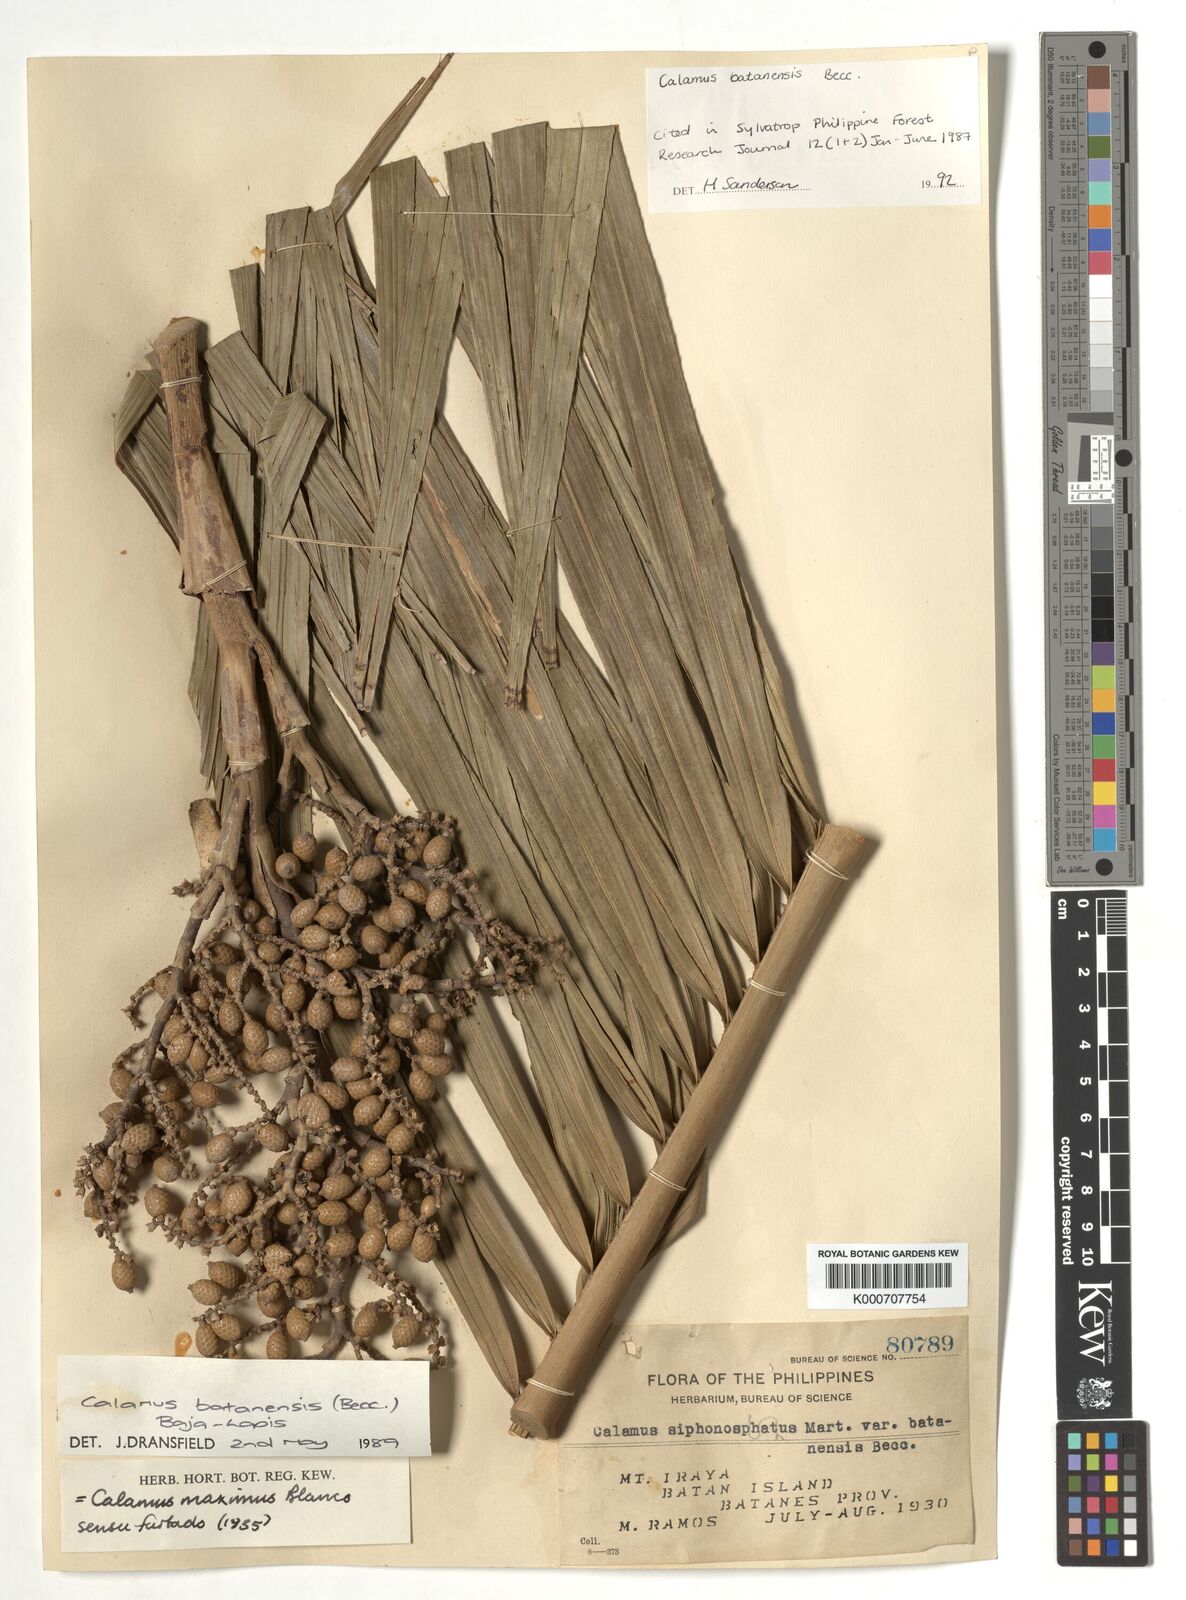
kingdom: Plantae
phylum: Tracheophyta
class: Liliopsida
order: Arecales
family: Arecaceae
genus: Calamus
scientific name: Calamus batanensis
